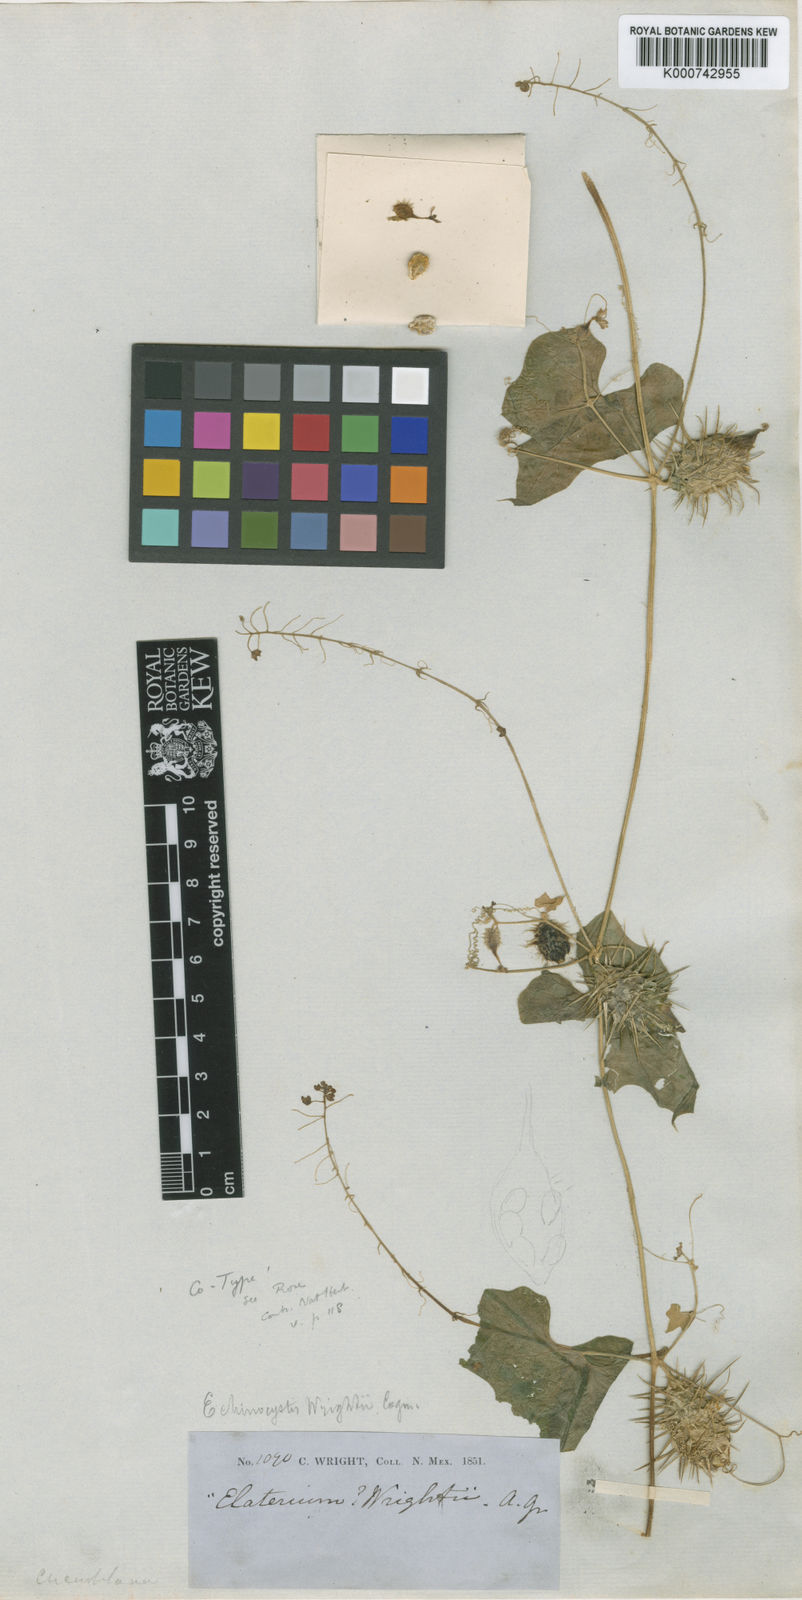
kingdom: Plantae
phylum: Tracheophyta
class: Magnoliopsida
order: Cucurbitales
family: Cucurbitaceae
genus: Echinopepon
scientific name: Echinopepon wrightii
